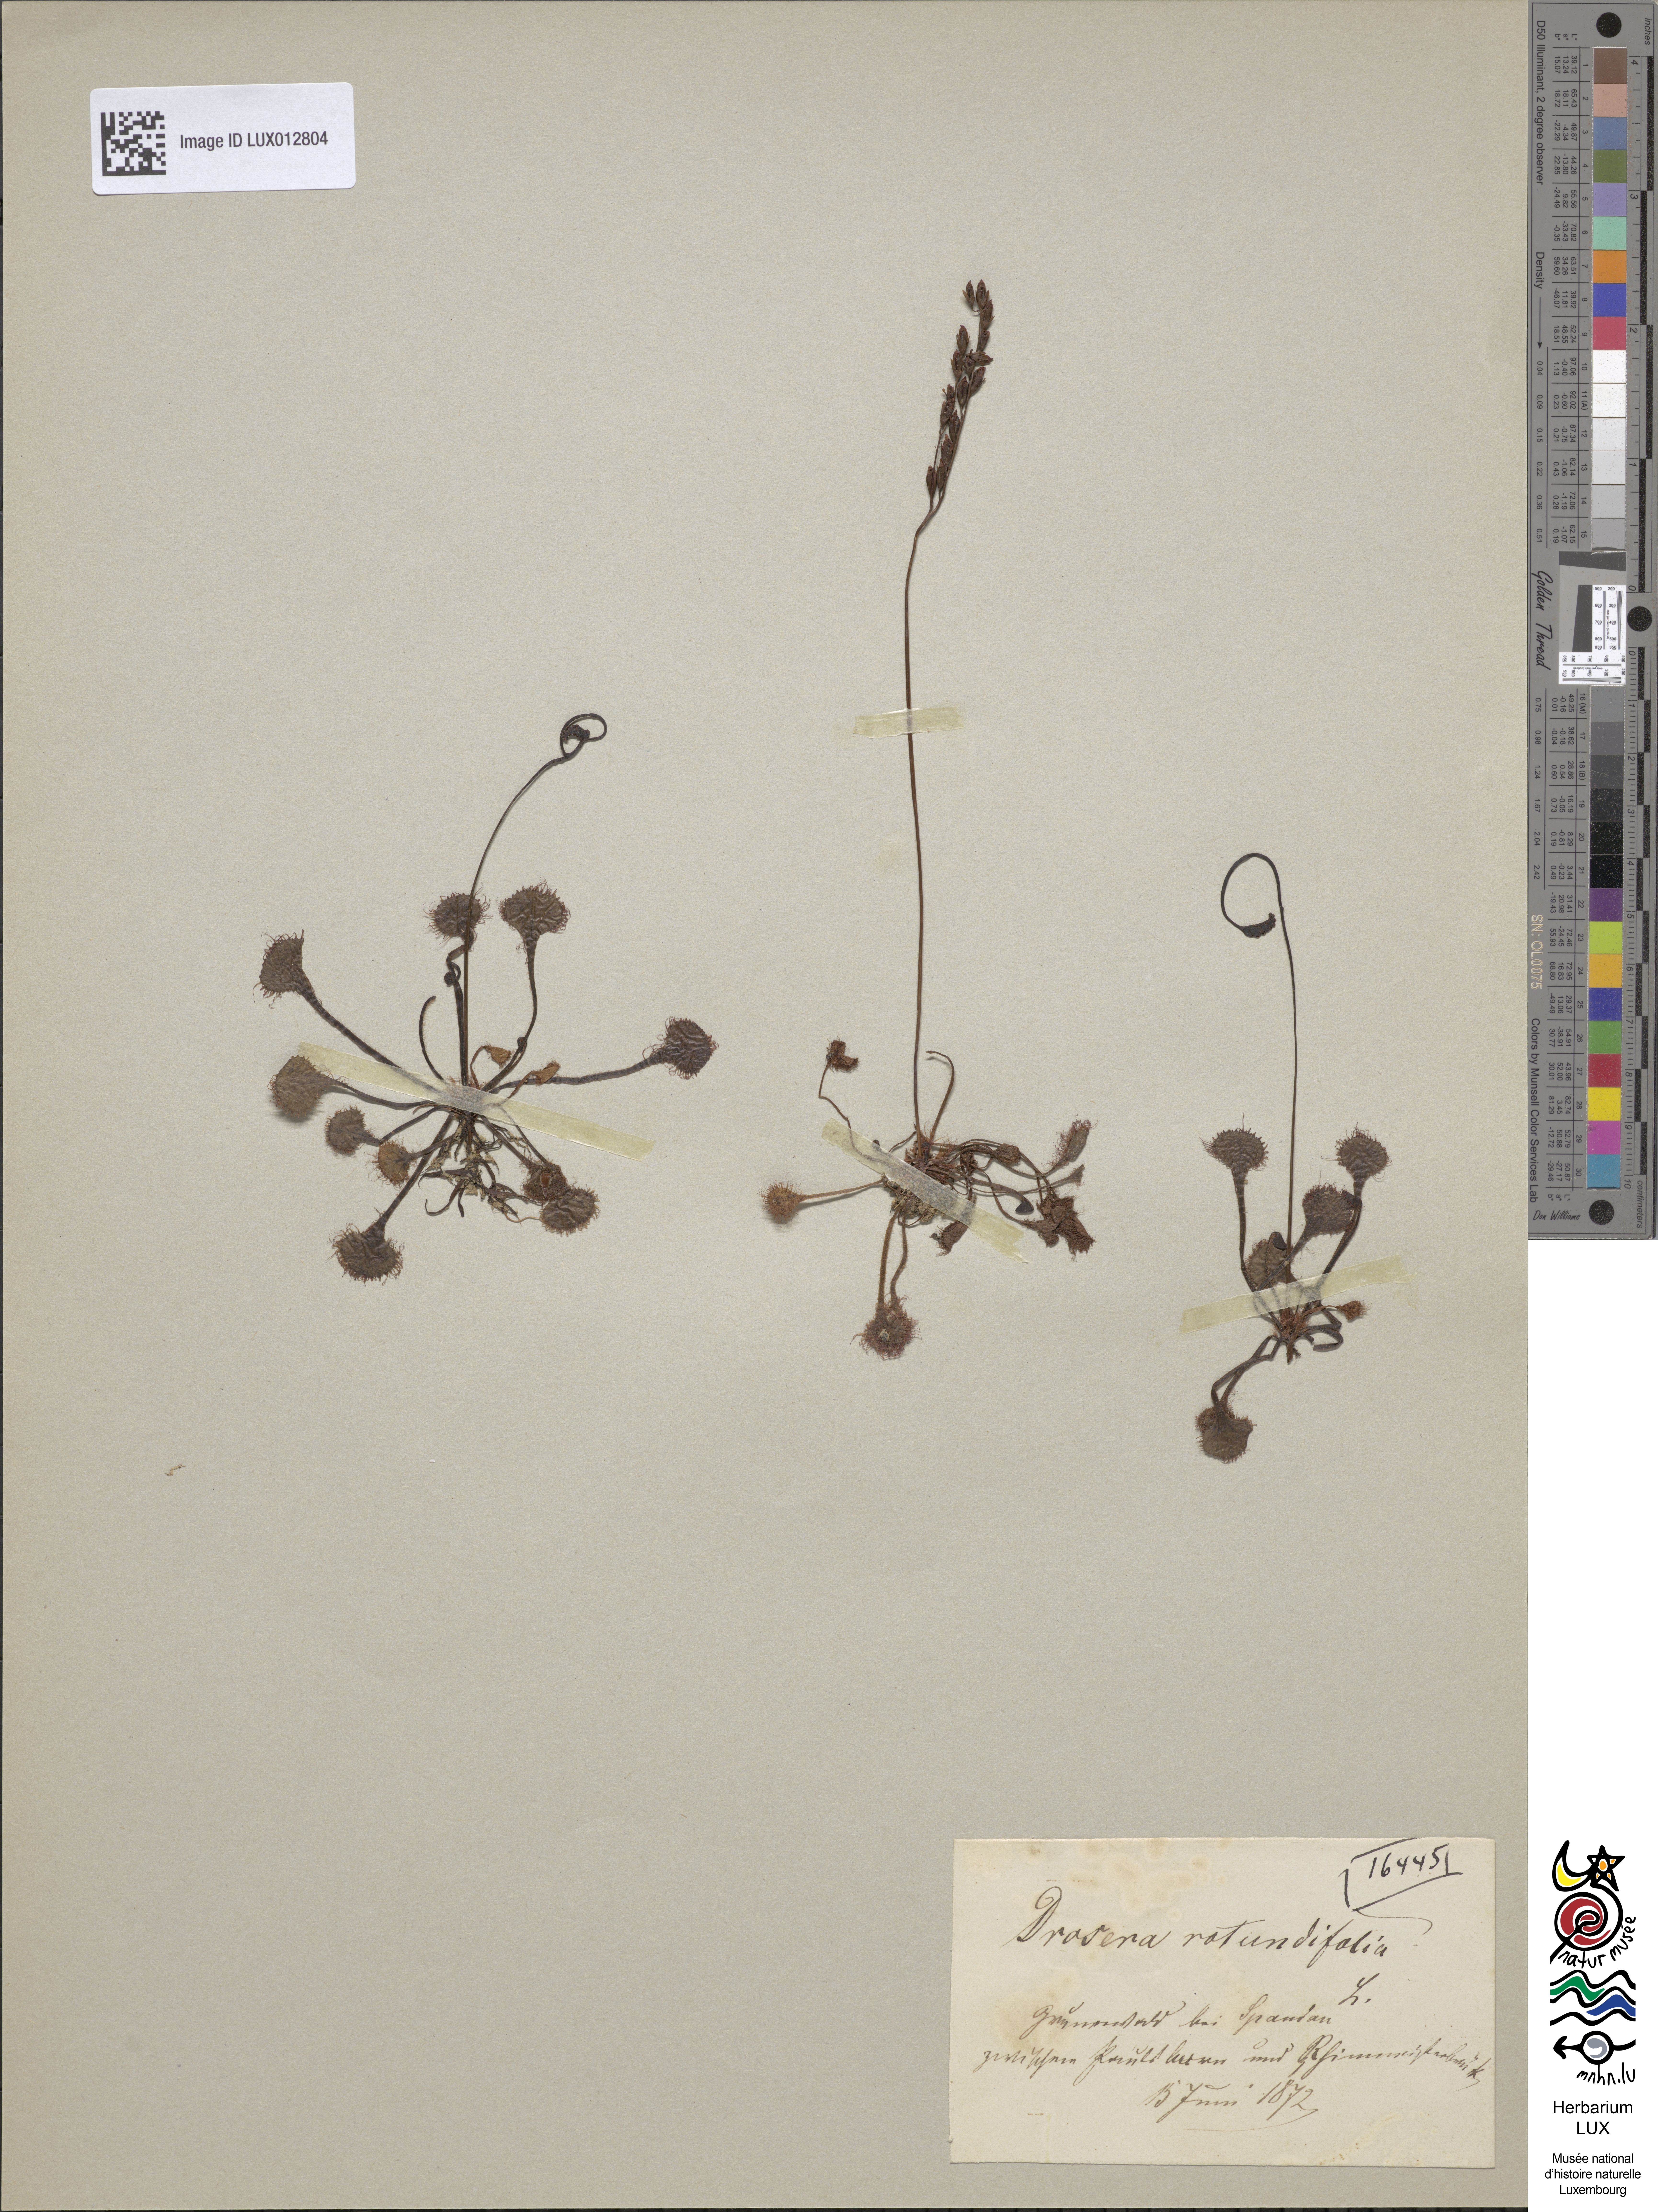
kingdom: Plantae
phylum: Tracheophyta
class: Magnoliopsida
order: Caryophyllales
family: Droseraceae
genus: Drosera
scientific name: Drosera rotundifolia
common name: Round-leaved sundew
